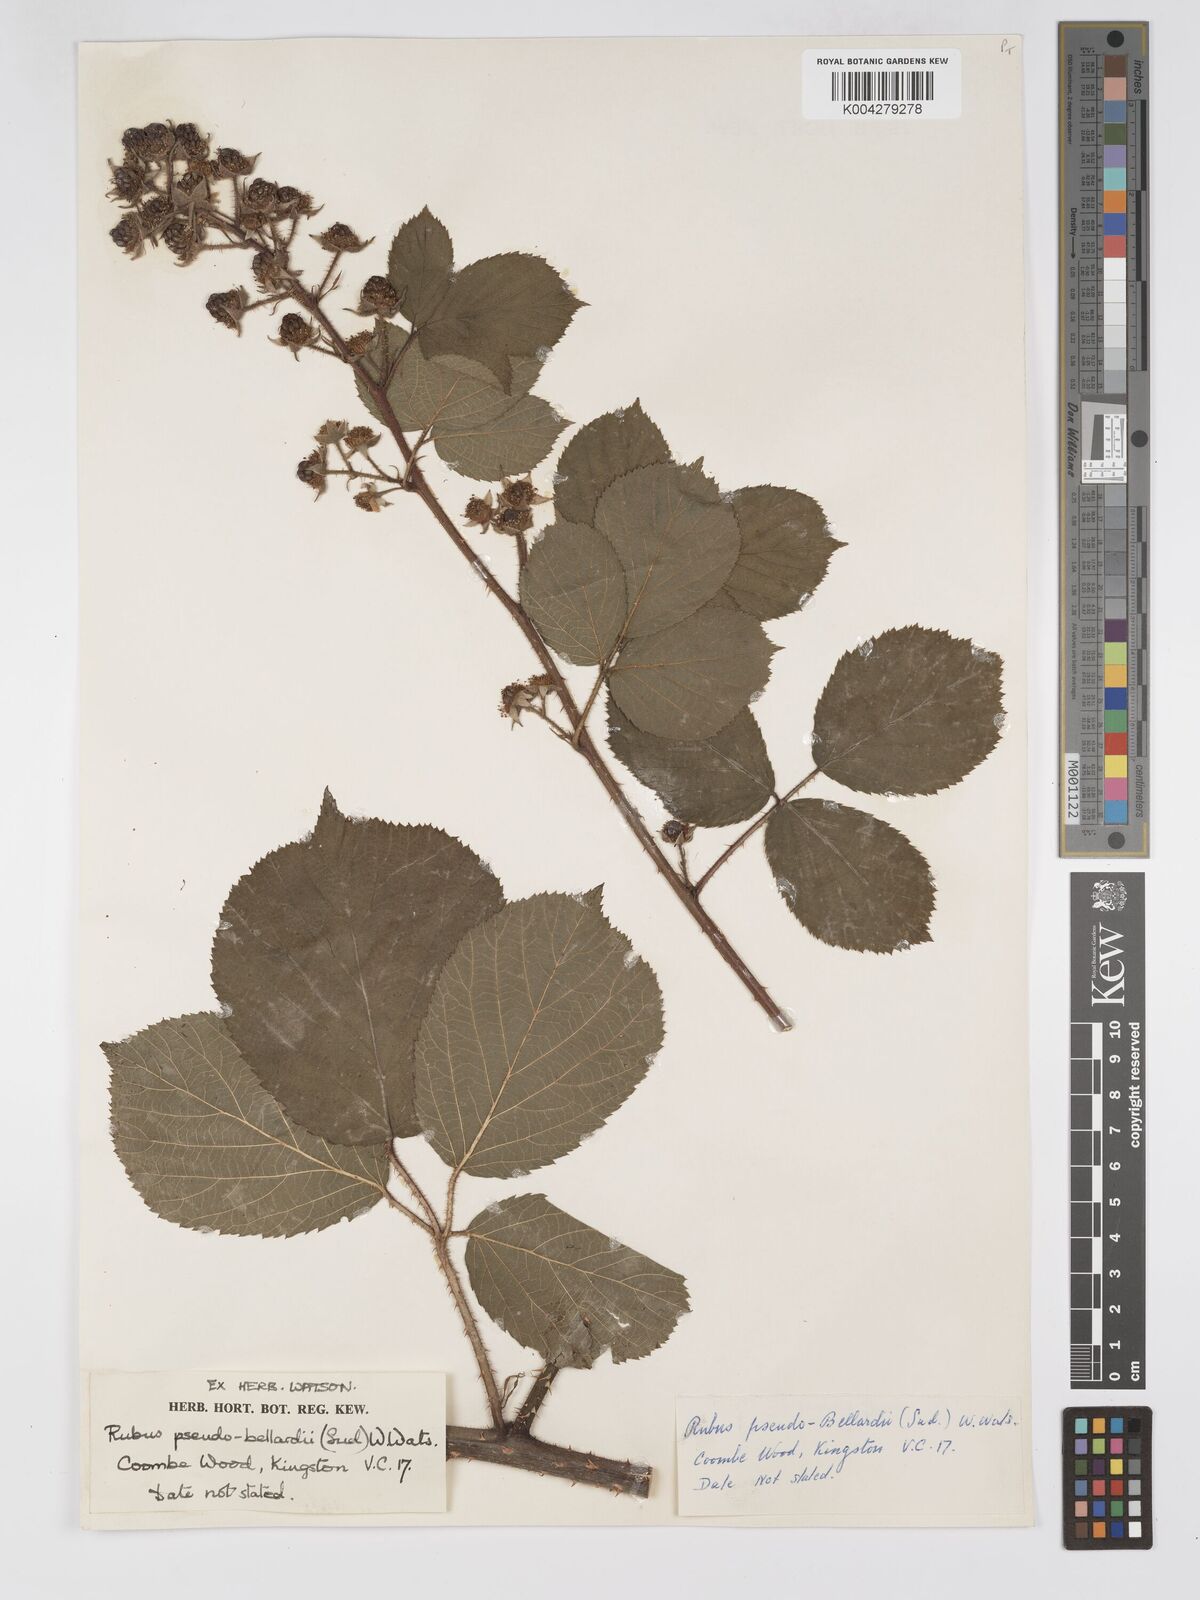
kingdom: Plantae
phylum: Tracheophyta
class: Magnoliopsida
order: Rosales
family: Rosaceae
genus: Rubus
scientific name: Rubus
